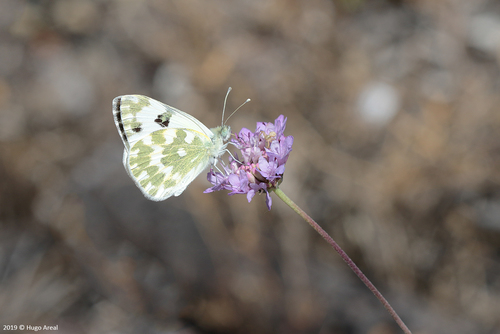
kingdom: Animalia
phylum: Arthropoda
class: Insecta
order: Lepidoptera
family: Pieridae
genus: Pontia
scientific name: Pontia daplidice
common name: Bath white
